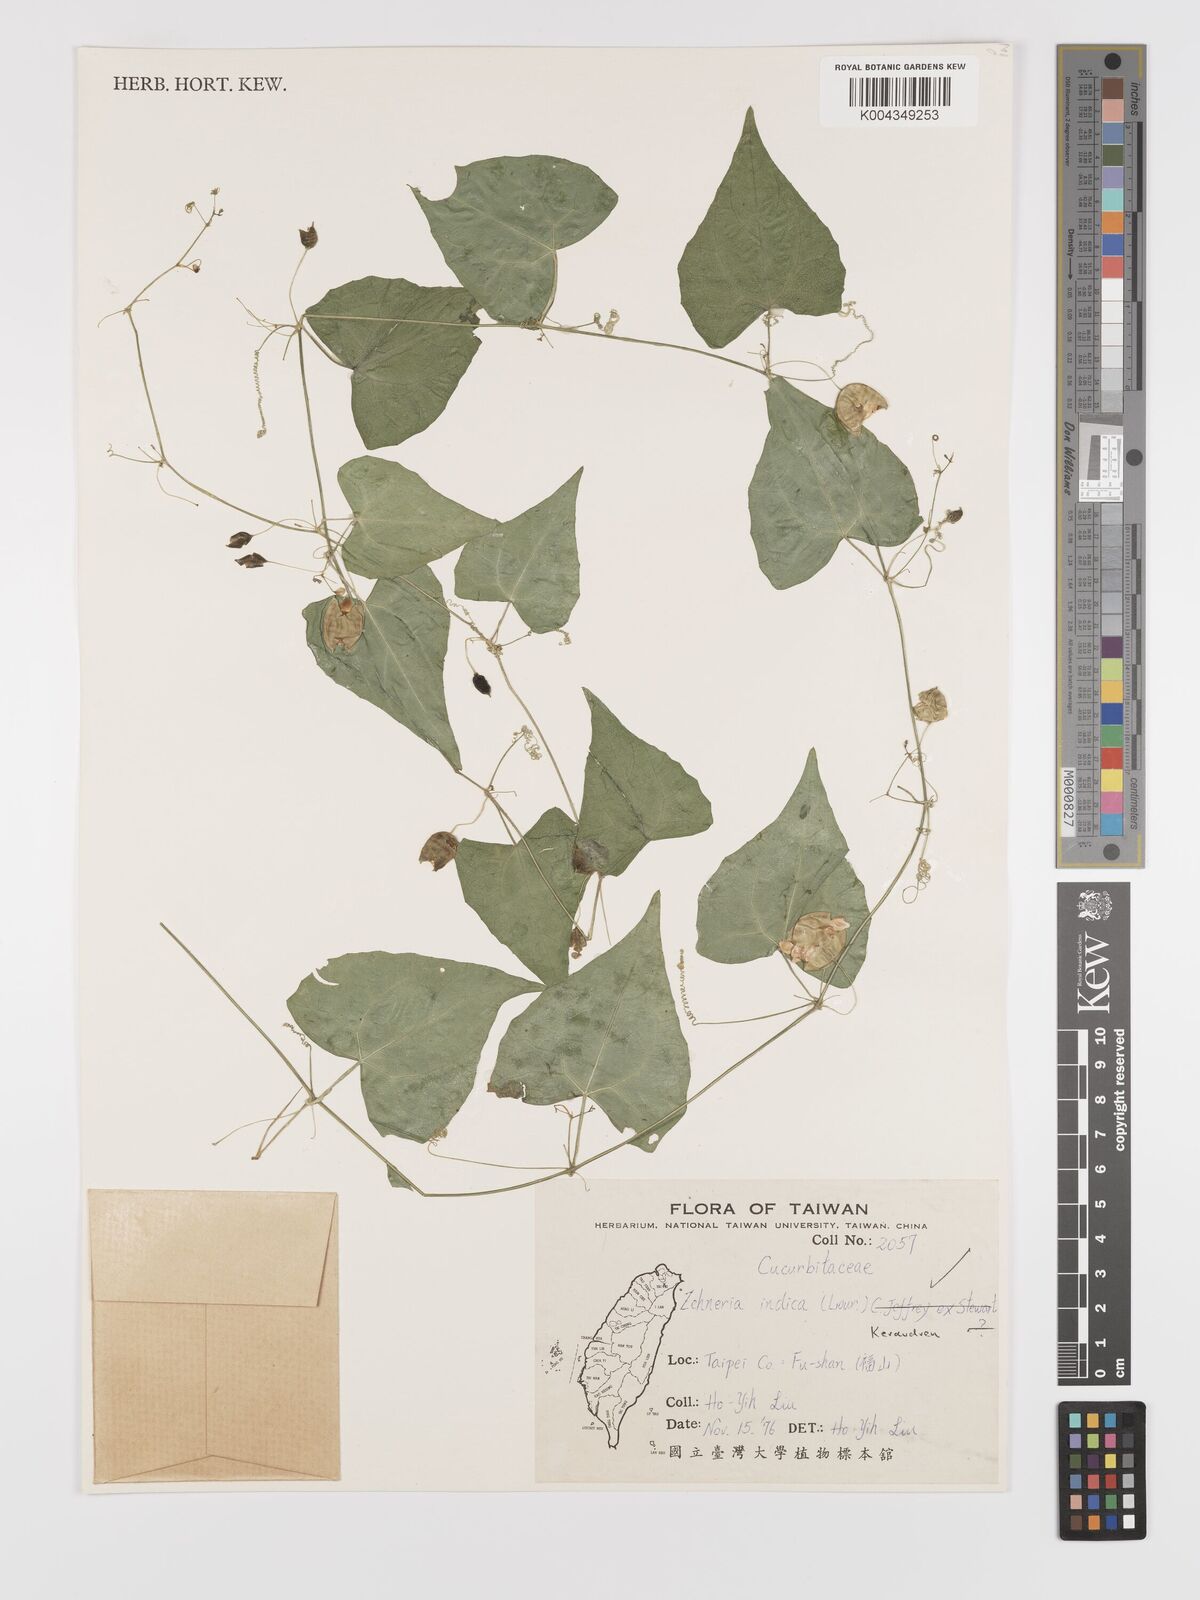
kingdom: Plantae
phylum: Tracheophyta
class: Magnoliopsida
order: Cucurbitales
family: Cucurbitaceae
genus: Zehneria
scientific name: Zehneria japonica
